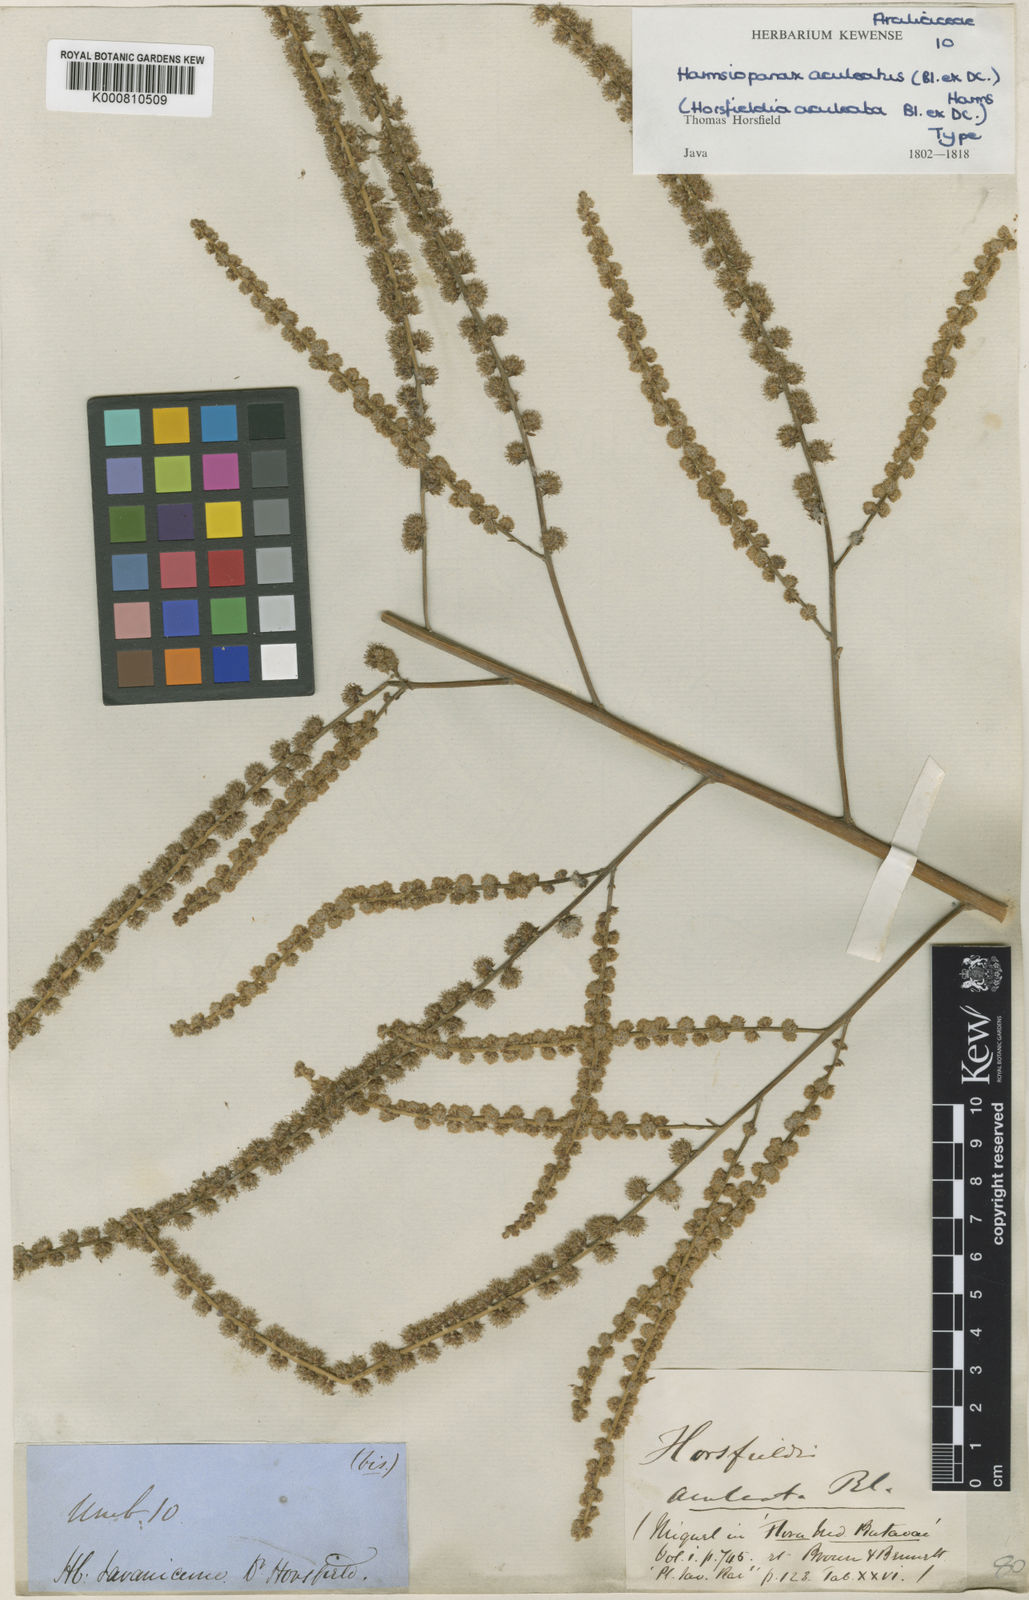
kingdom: Plantae
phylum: Tracheophyta
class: Magnoliopsida
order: Apiales
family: Araliaceae
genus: Harmsiopanax
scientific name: Harmsiopanax aculeatus
